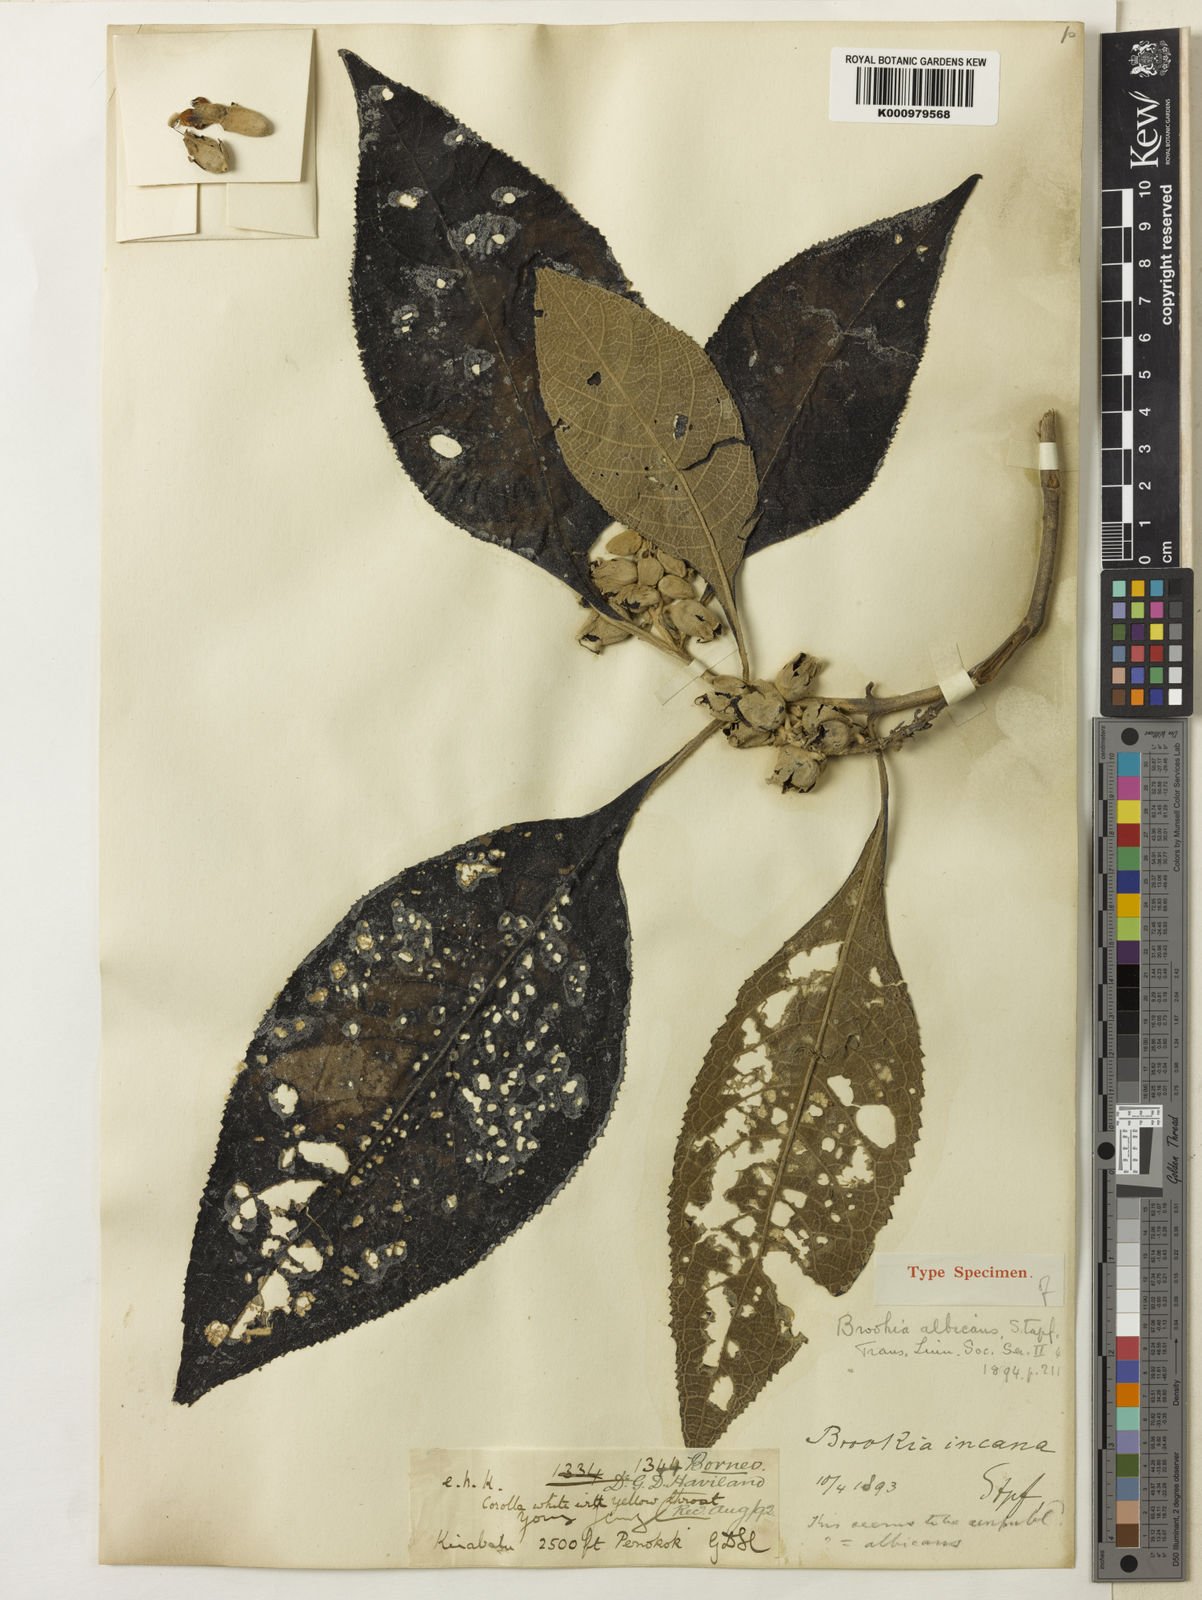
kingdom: Plantae
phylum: Tracheophyta
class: Magnoliopsida
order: Lamiales
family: Plantaginaceae
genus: Brookea
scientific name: Brookea albicans
